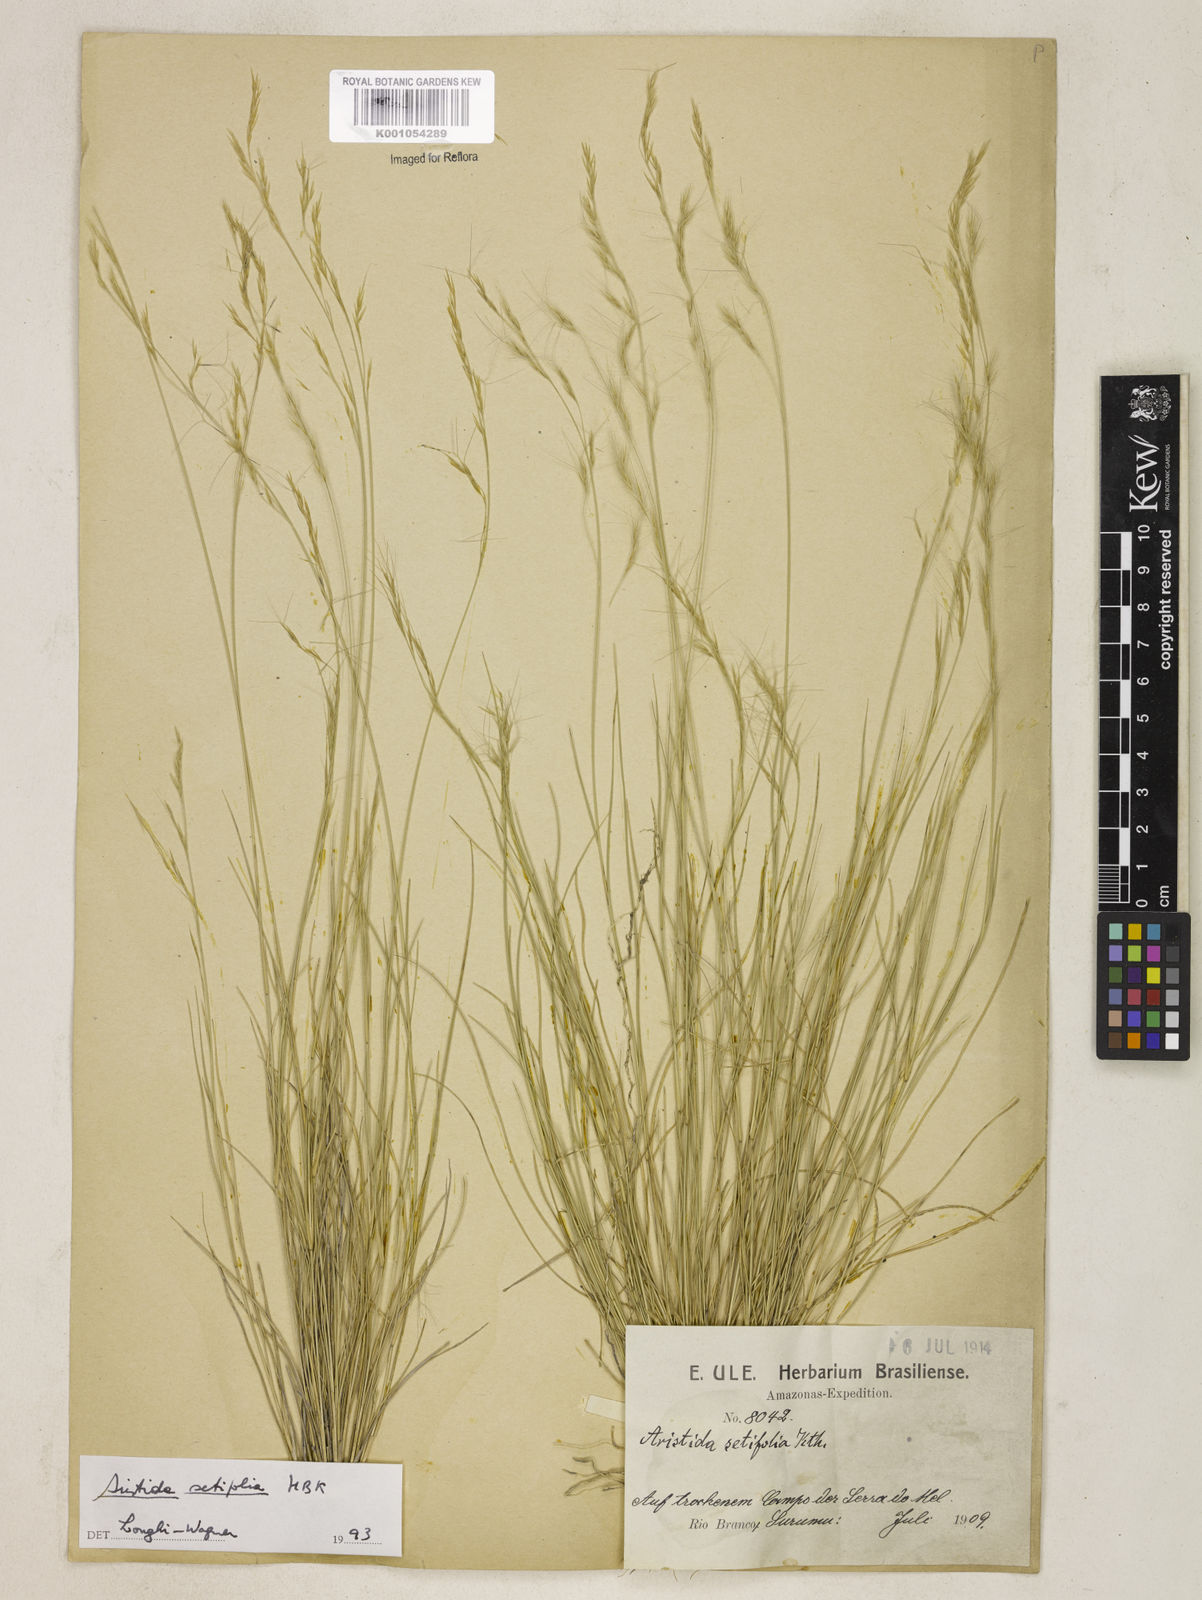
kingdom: Plantae
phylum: Tracheophyta
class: Liliopsida
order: Poales
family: Poaceae
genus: Aristida
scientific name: Aristida setifolia
